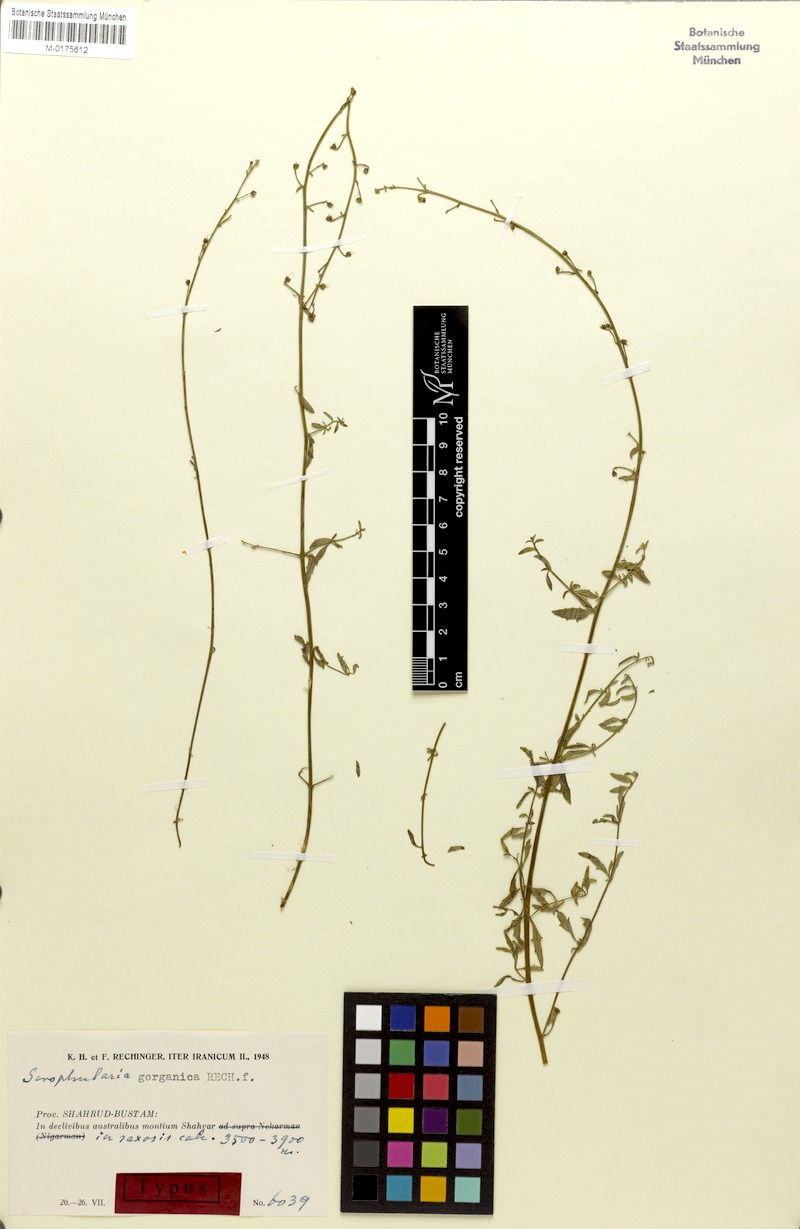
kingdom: Plantae
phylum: Tracheophyta
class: Magnoliopsida
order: Lamiales
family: Scrophulariaceae
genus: Scrophularia
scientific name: Scrophularia gorganica
